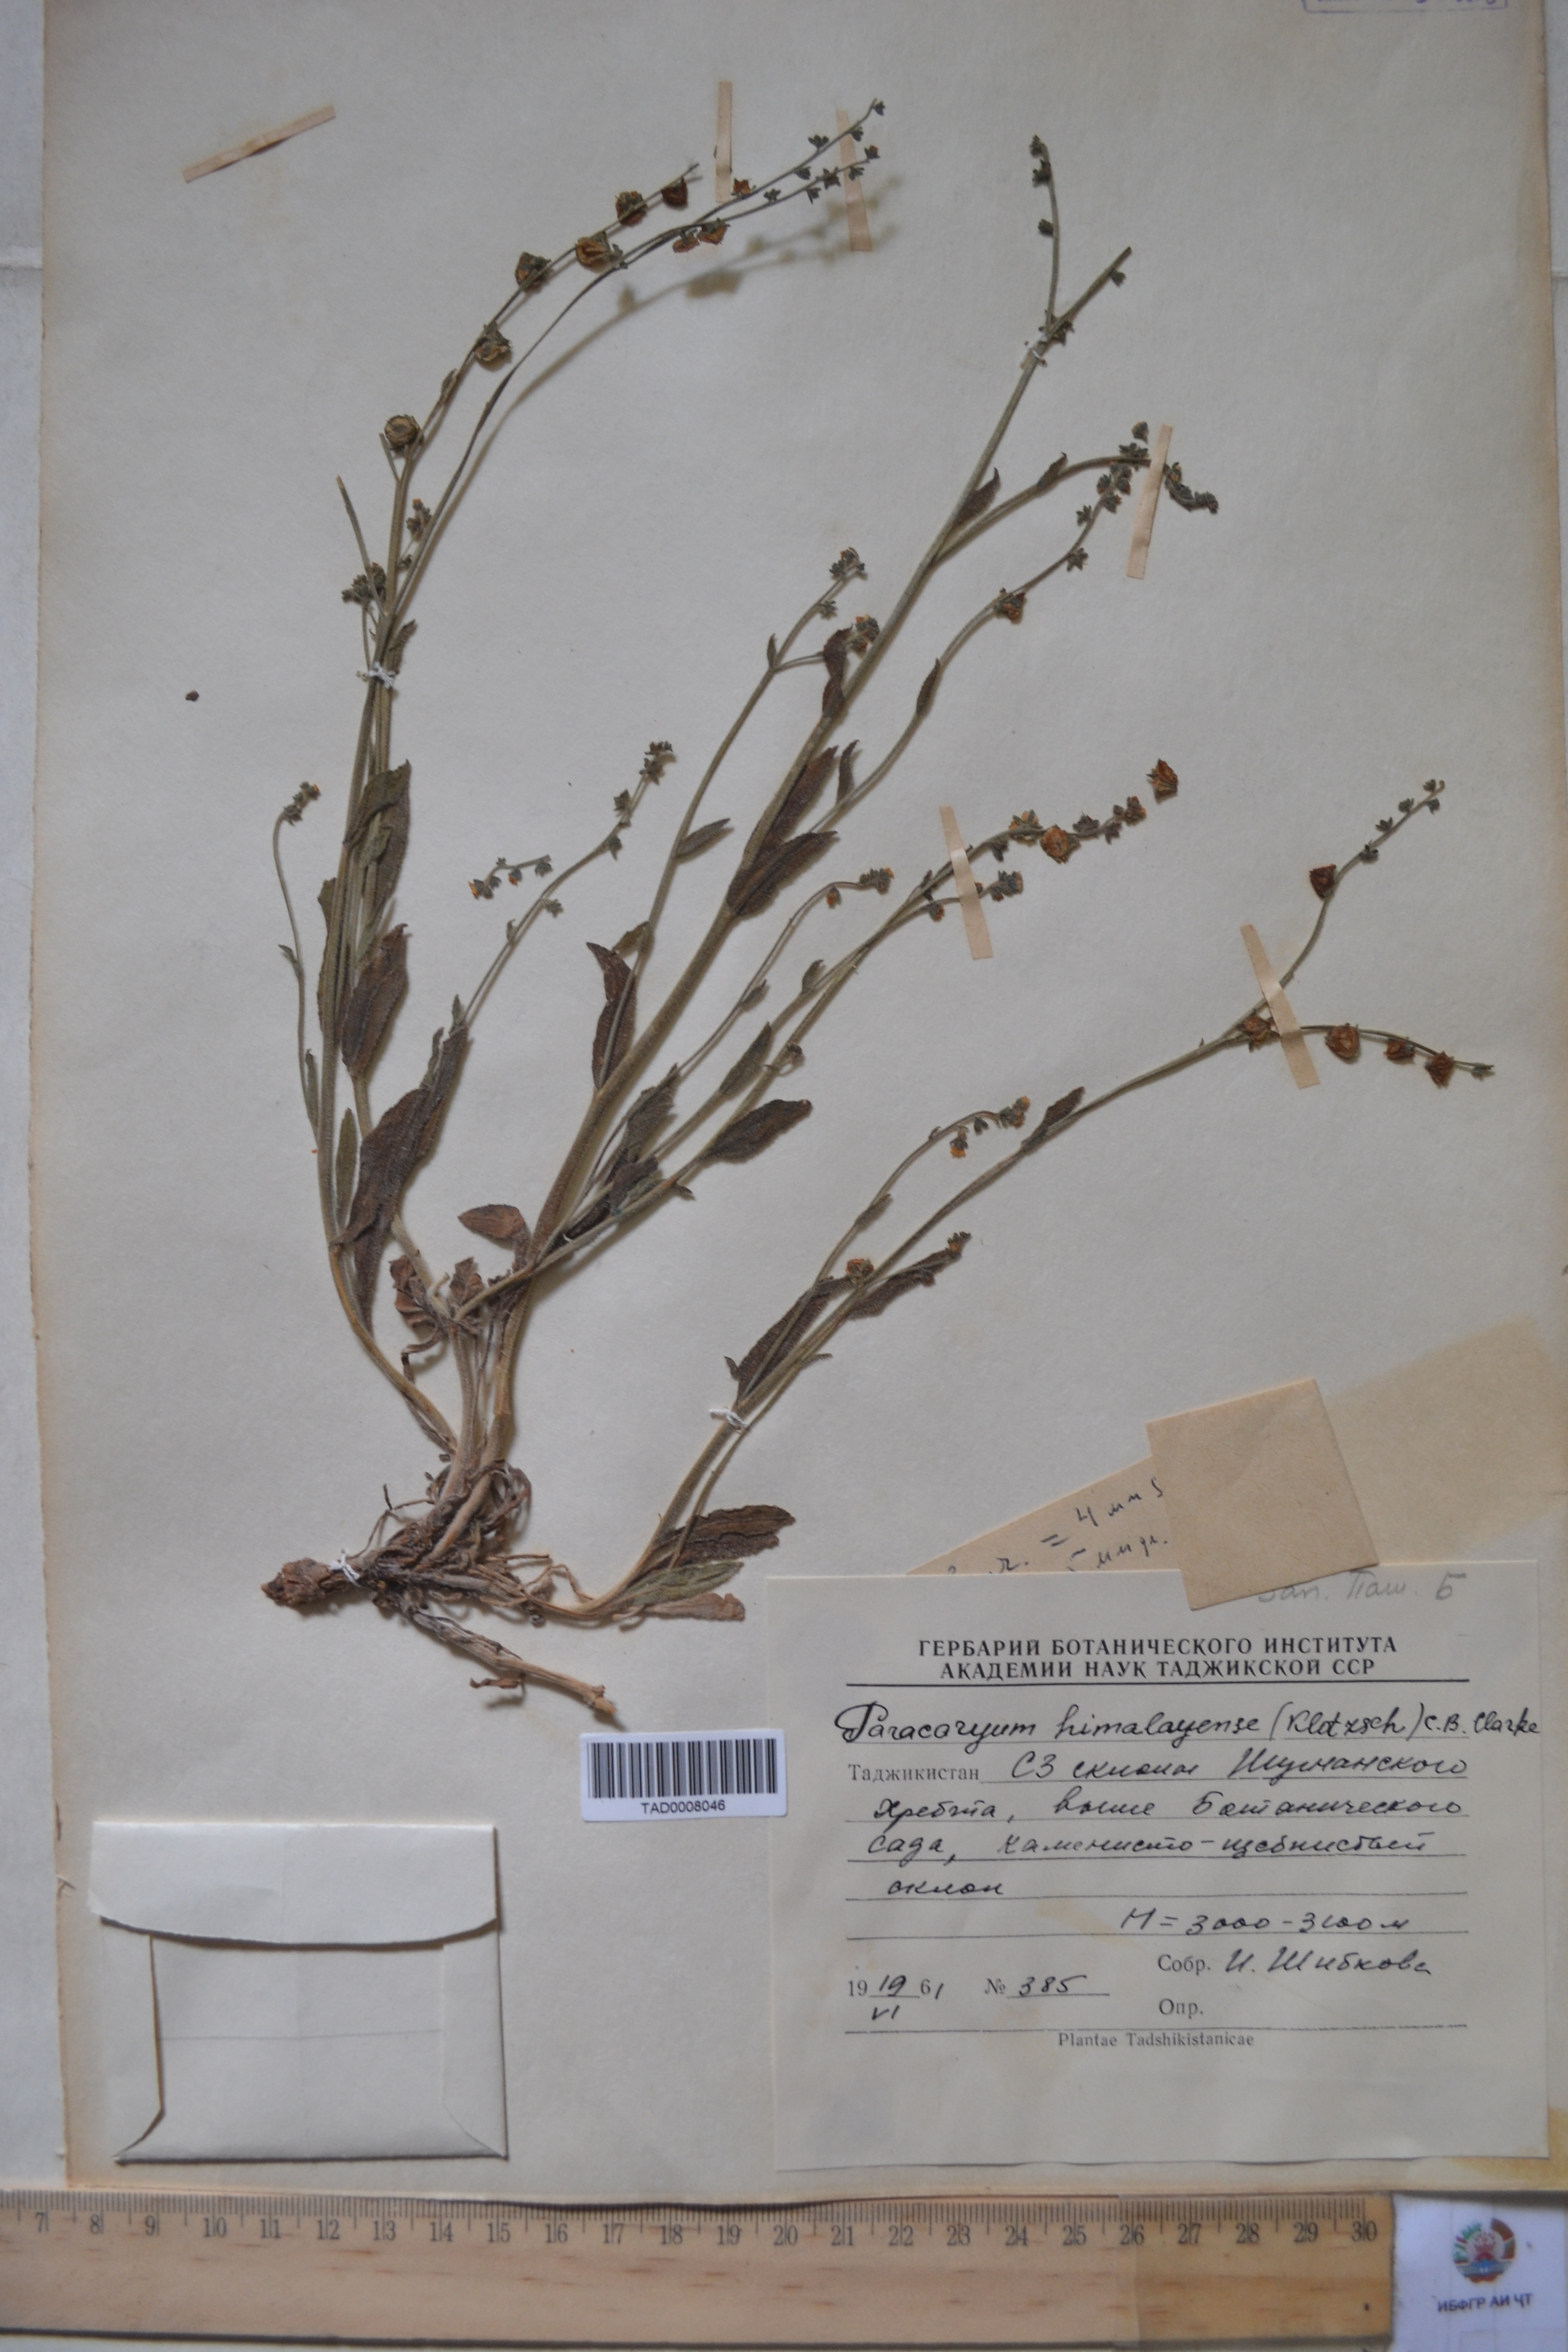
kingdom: Plantae
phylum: Tracheophyta
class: Magnoliopsida
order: Boraginales
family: Boraginaceae
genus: Paracaryum
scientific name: Paracaryum himalayense
